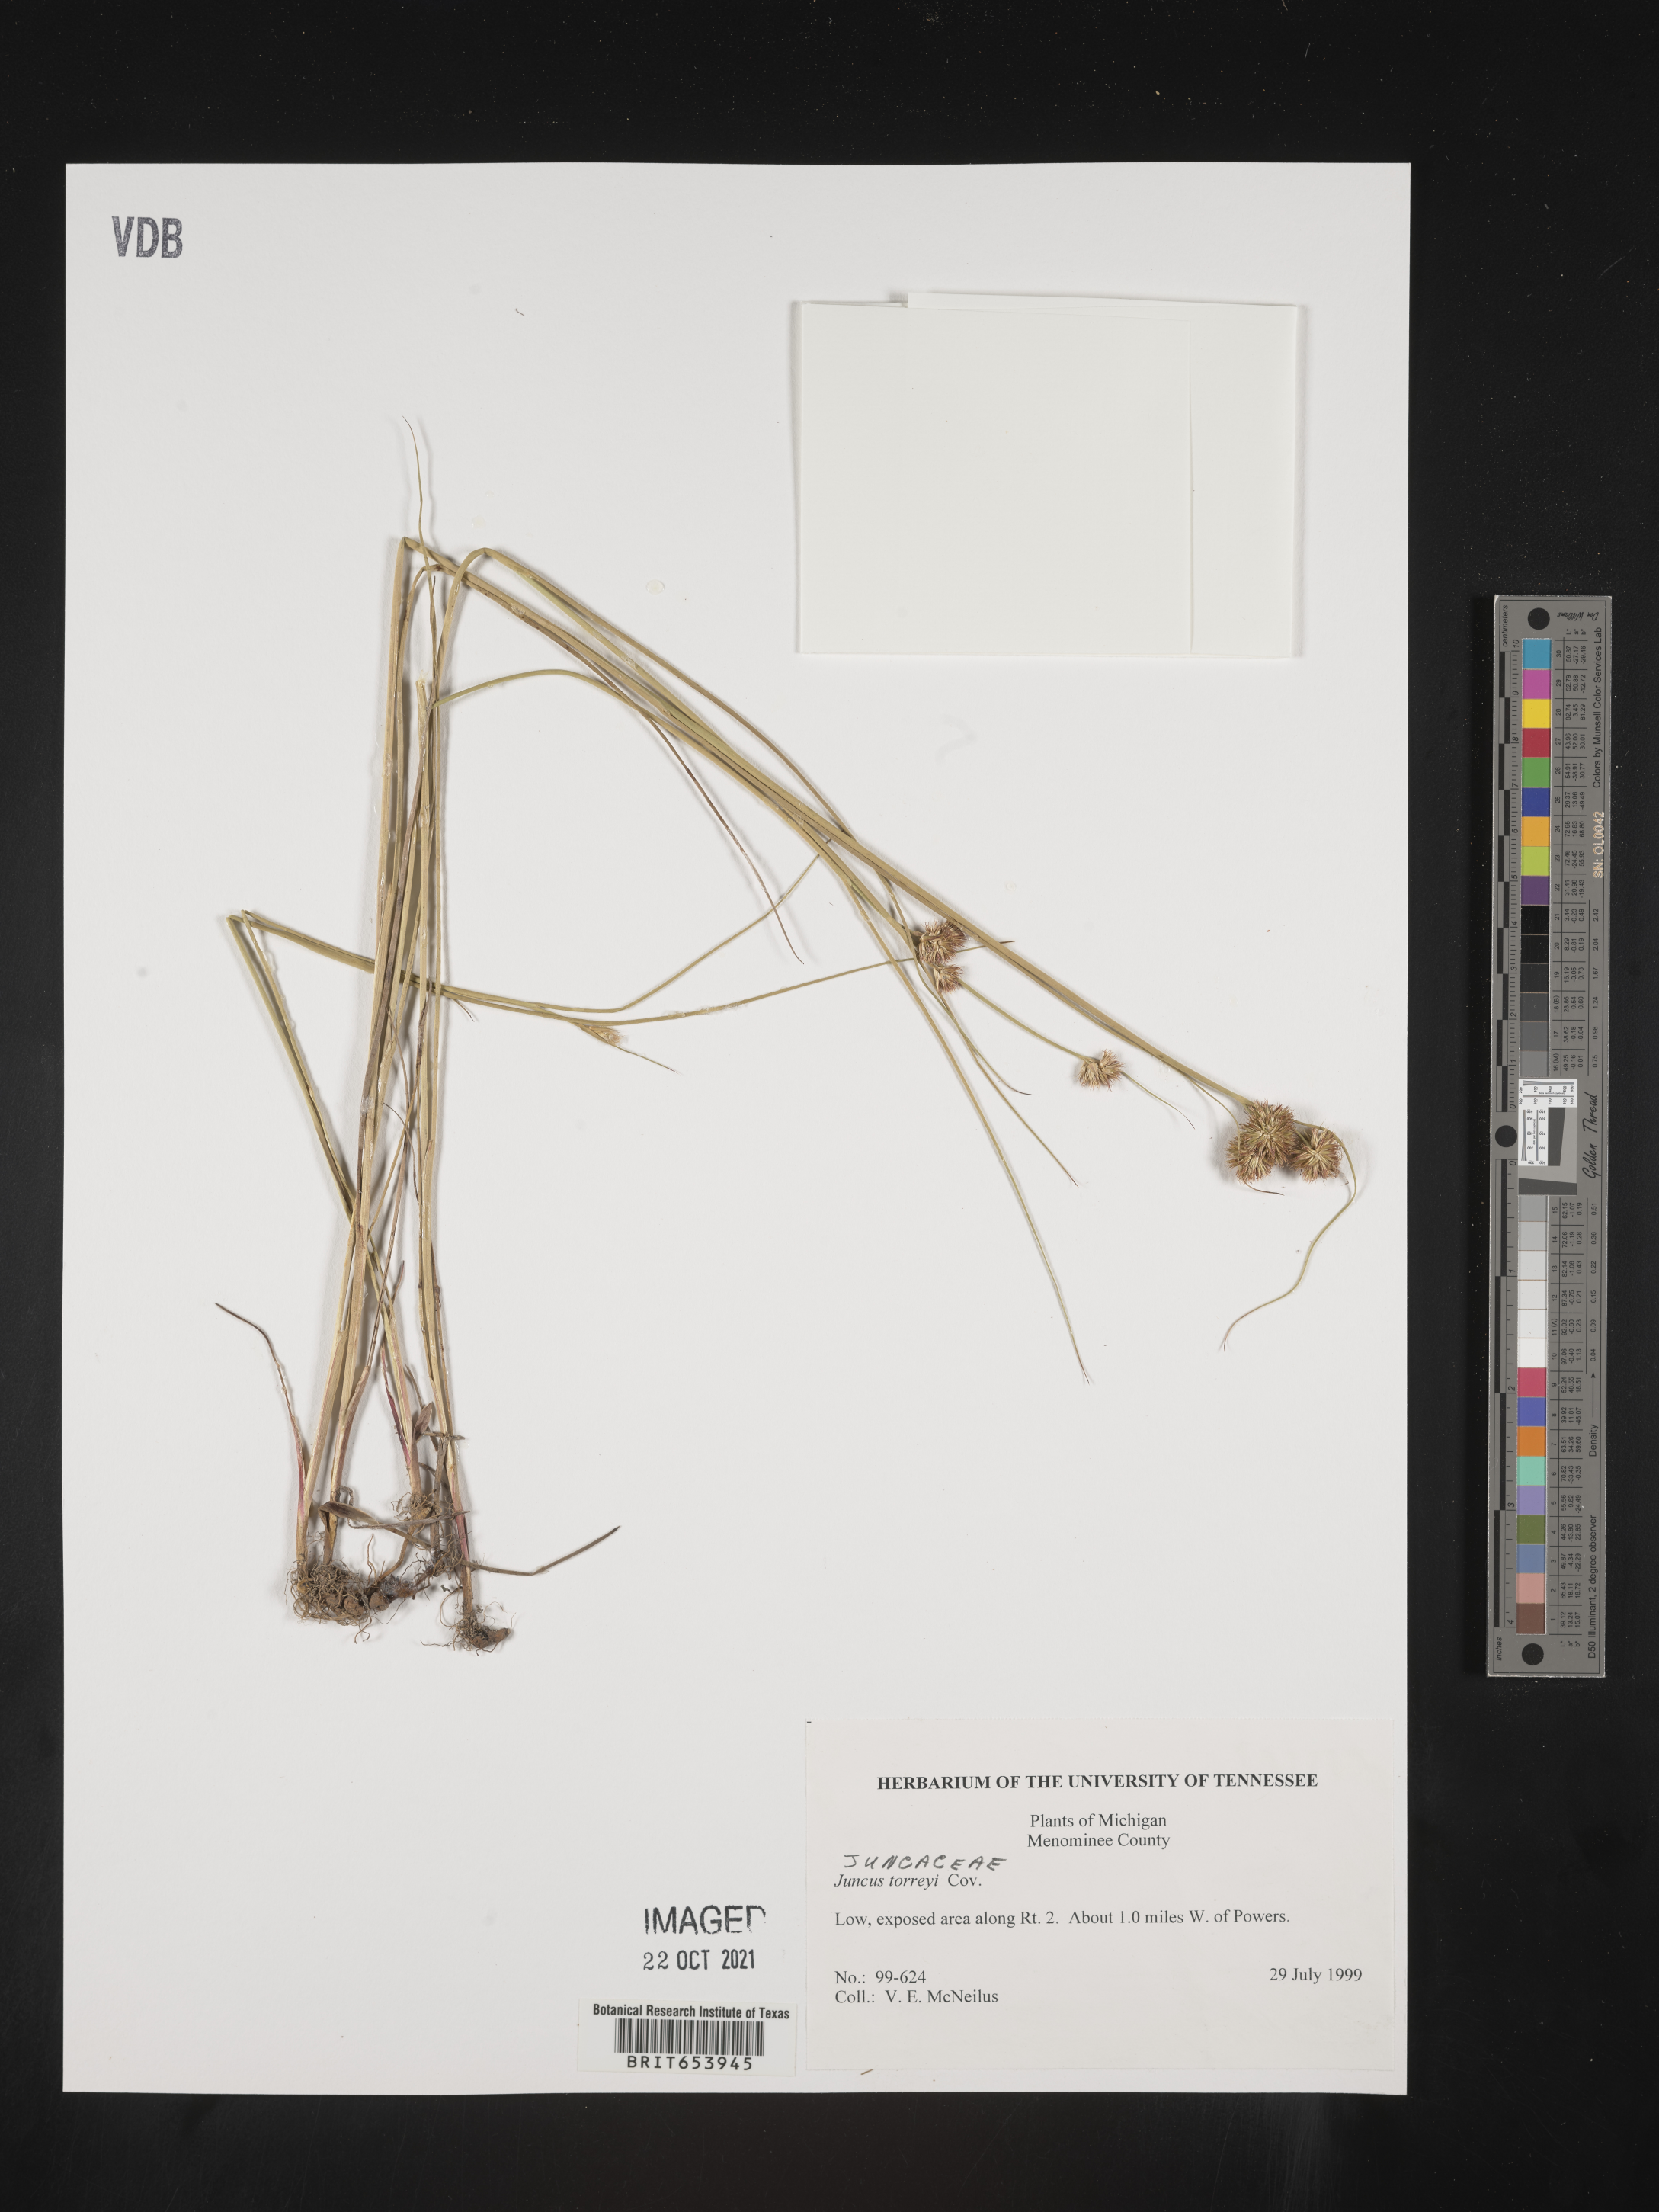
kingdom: Plantae
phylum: Tracheophyta
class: Liliopsida
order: Poales
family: Juncaceae
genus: Juncus
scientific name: Juncus torreyi
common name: Torrey's rush
